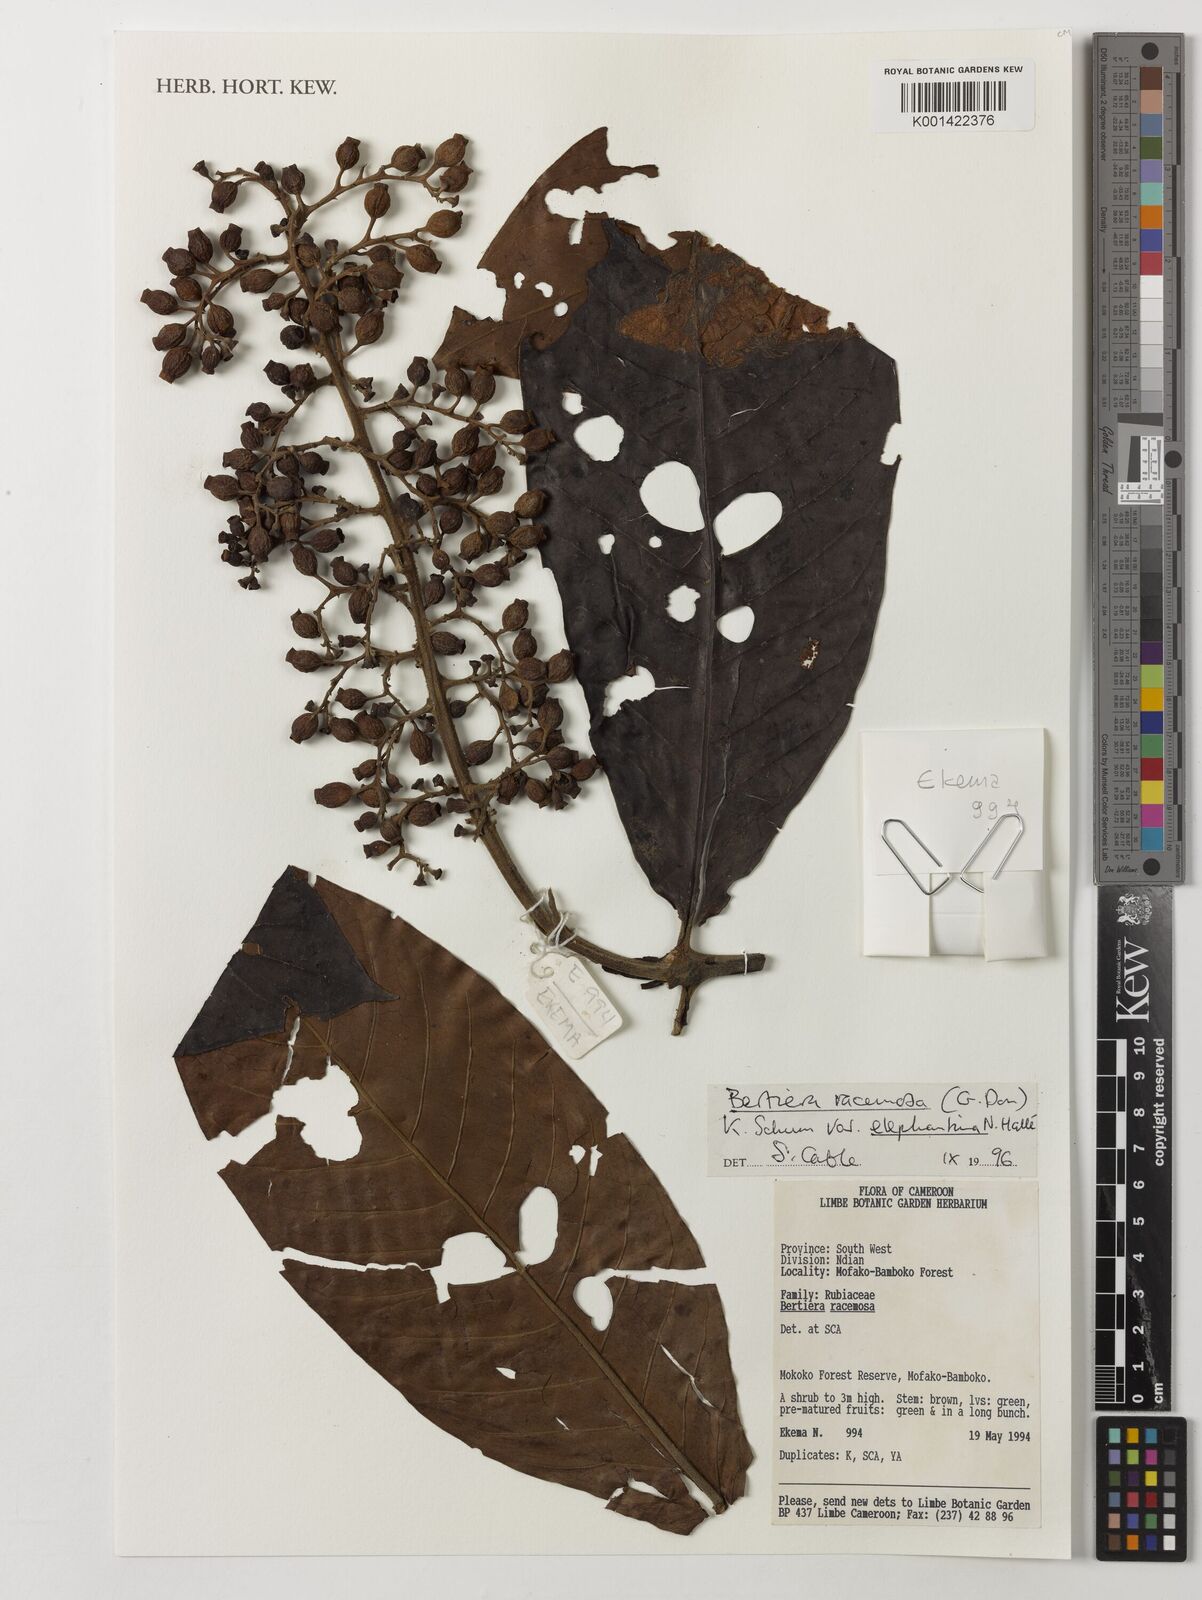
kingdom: Plantae
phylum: Tracheophyta
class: Magnoliopsida
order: Gentianales
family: Rubiaceae
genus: Bertiera
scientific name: Bertiera racemosa
